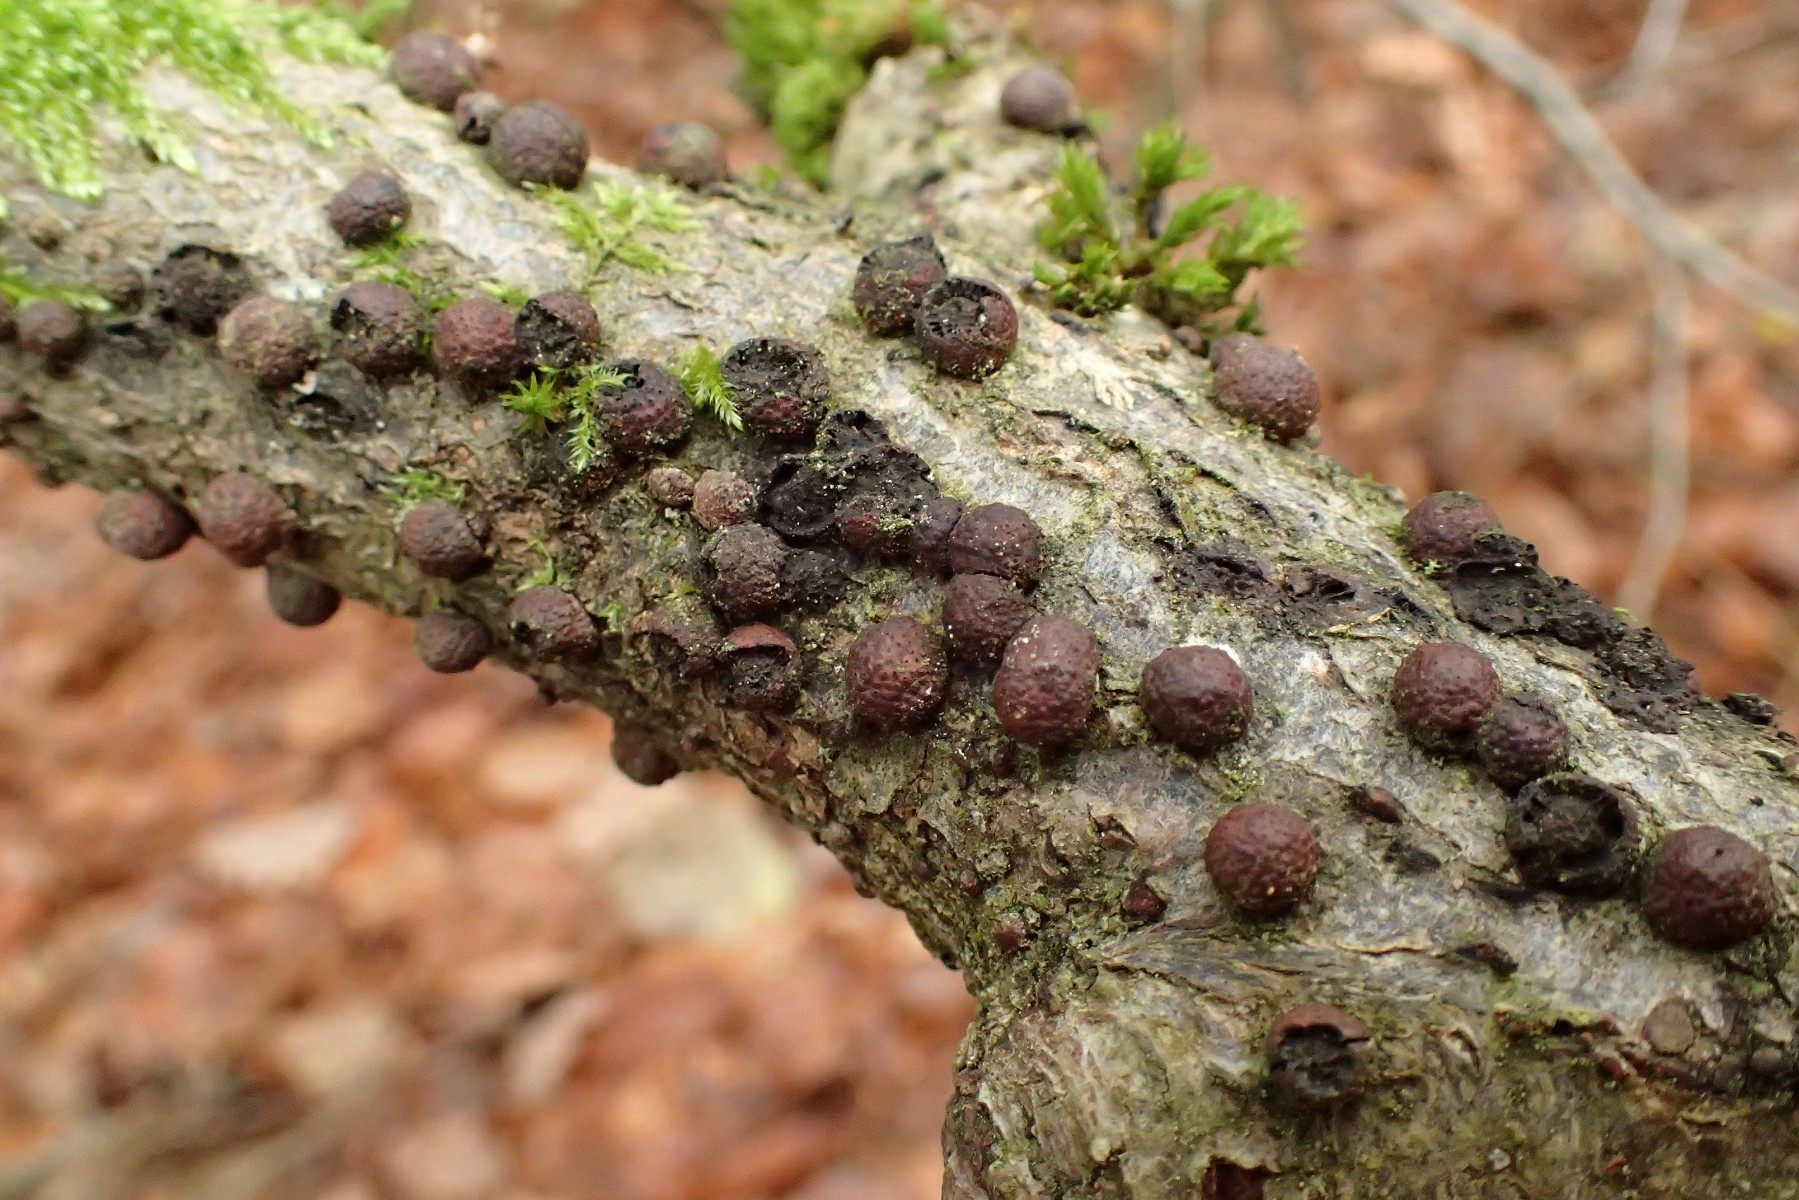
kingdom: Fungi
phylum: Ascomycota
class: Sordariomycetes
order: Xylariales
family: Hypoxylaceae
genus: Hypoxylon
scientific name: Hypoxylon fragiforme
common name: kuljordbær
